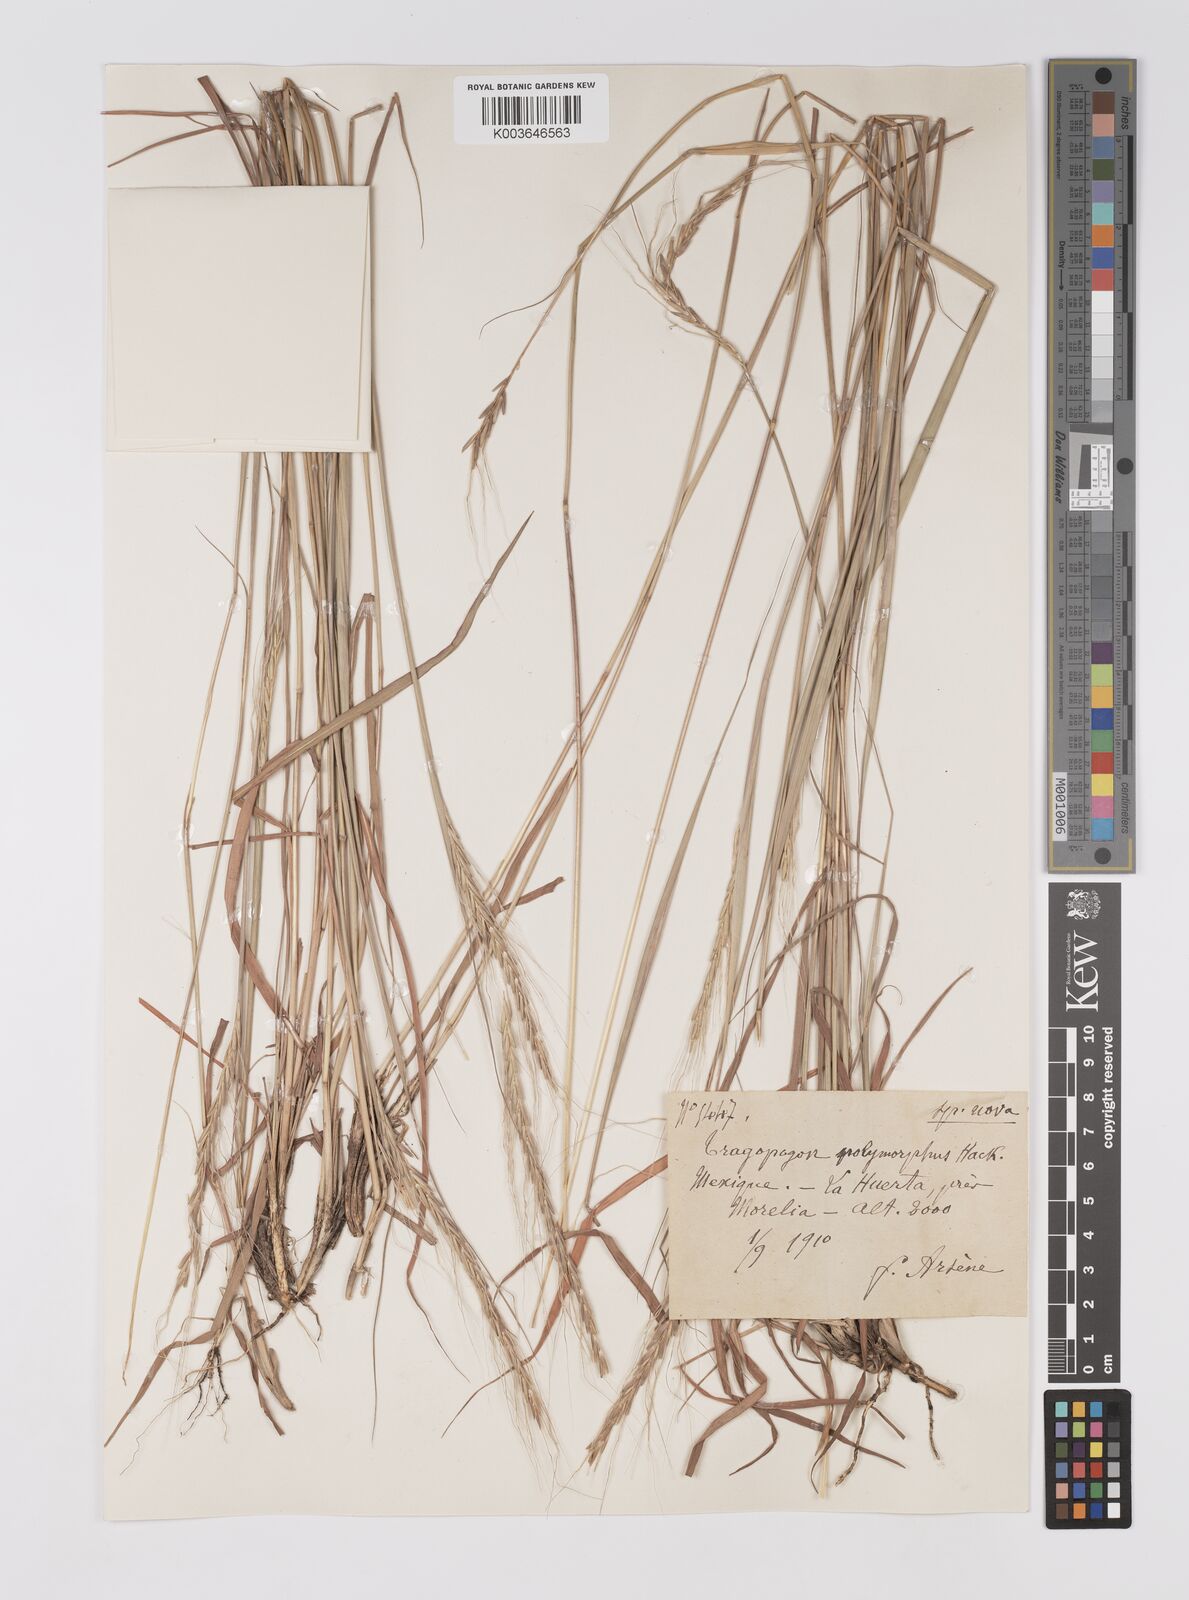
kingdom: Plantae
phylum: Tracheophyta
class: Liliopsida
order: Poales
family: Poaceae
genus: Trachypogon
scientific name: Trachypogon spicatus
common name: Crinkle-awn
